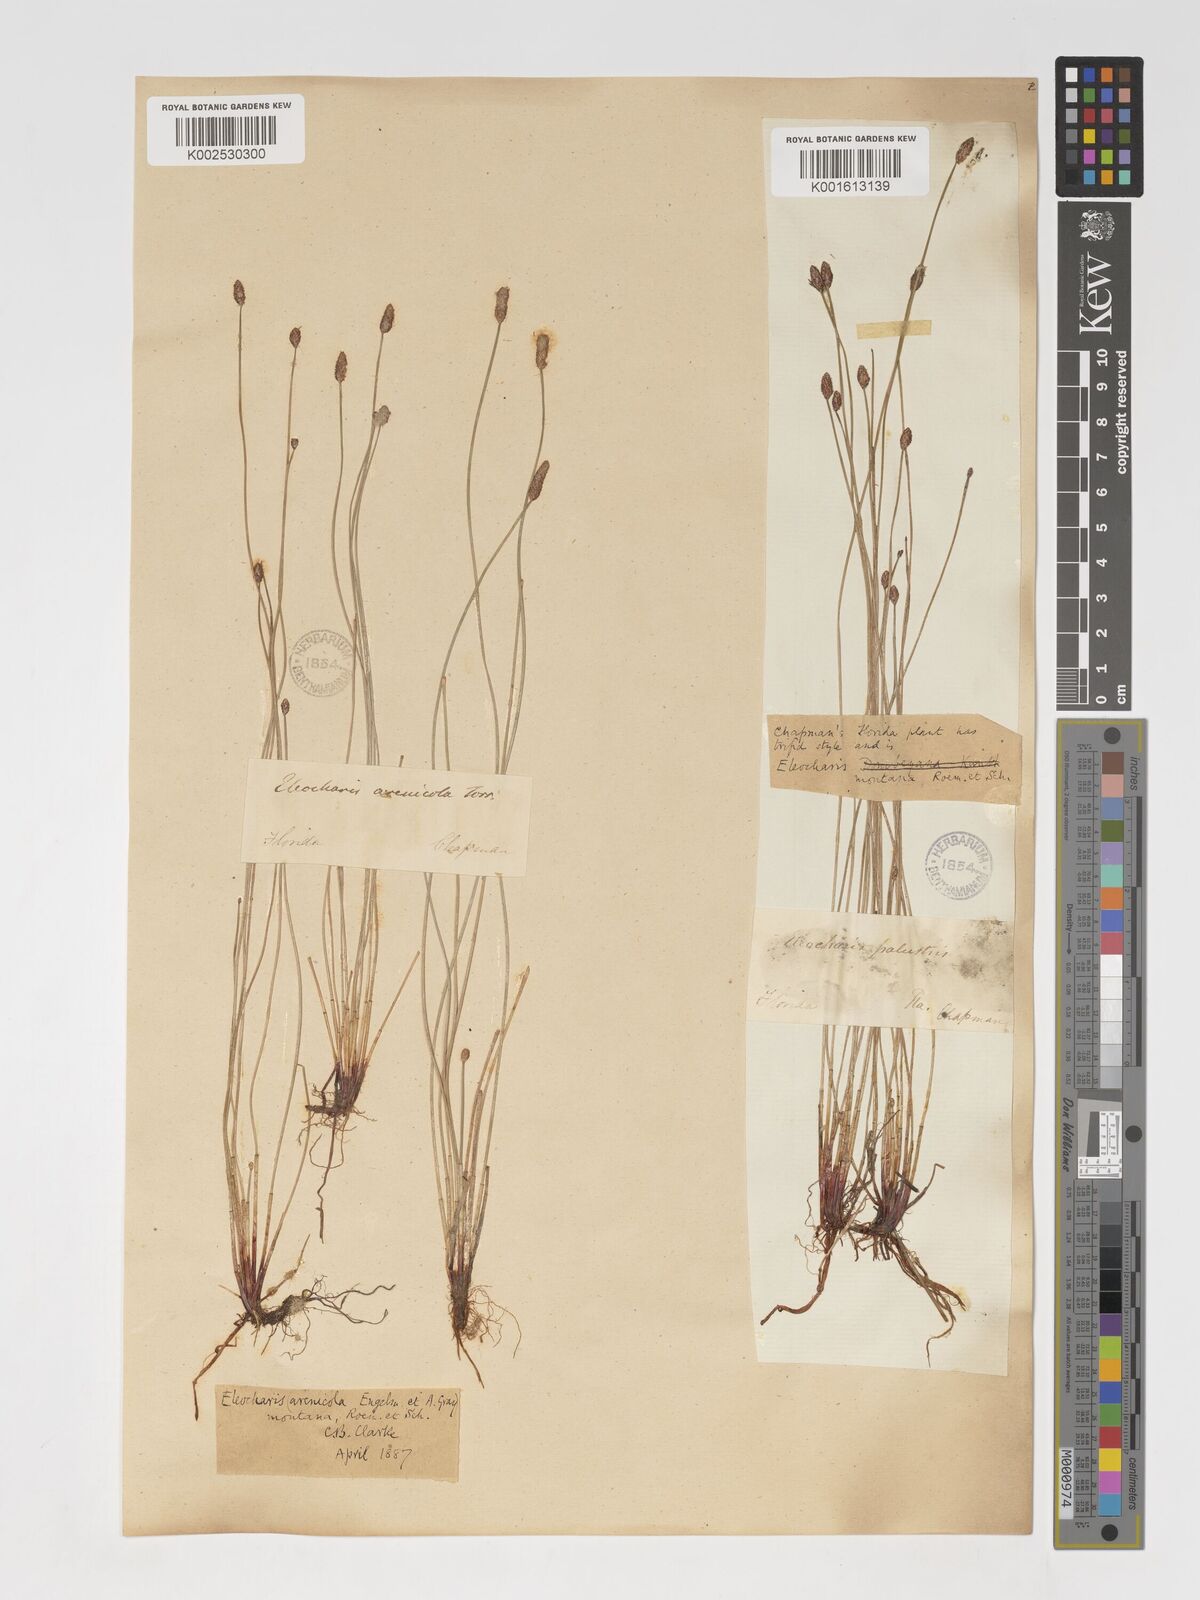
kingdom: Plantae
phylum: Tracheophyta
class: Liliopsida
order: Poales
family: Cyperaceae
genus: Eleocharis
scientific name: Eleocharis montevidensis
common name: Sand spike-rush
